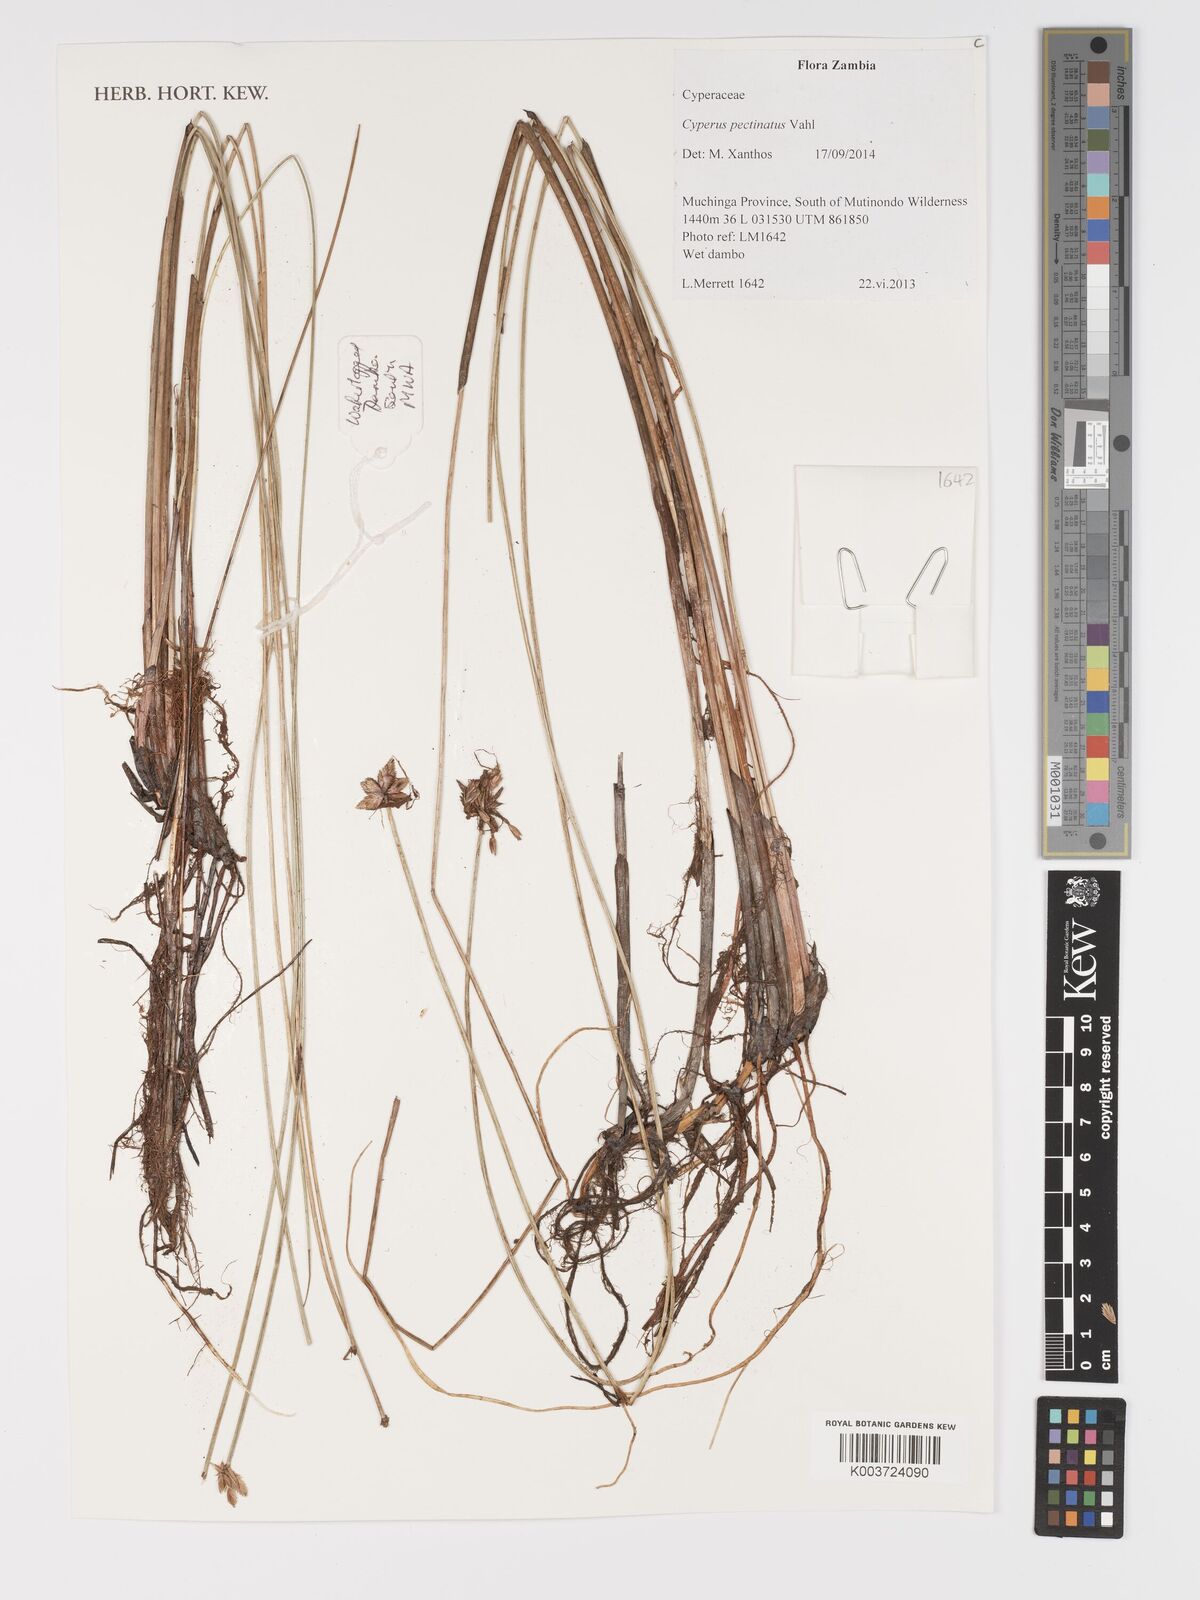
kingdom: Plantae
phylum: Tracheophyta
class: Liliopsida
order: Poales
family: Cyperaceae
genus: Cyperus
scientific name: Cyperus compressus
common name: Poorland flatsedge
